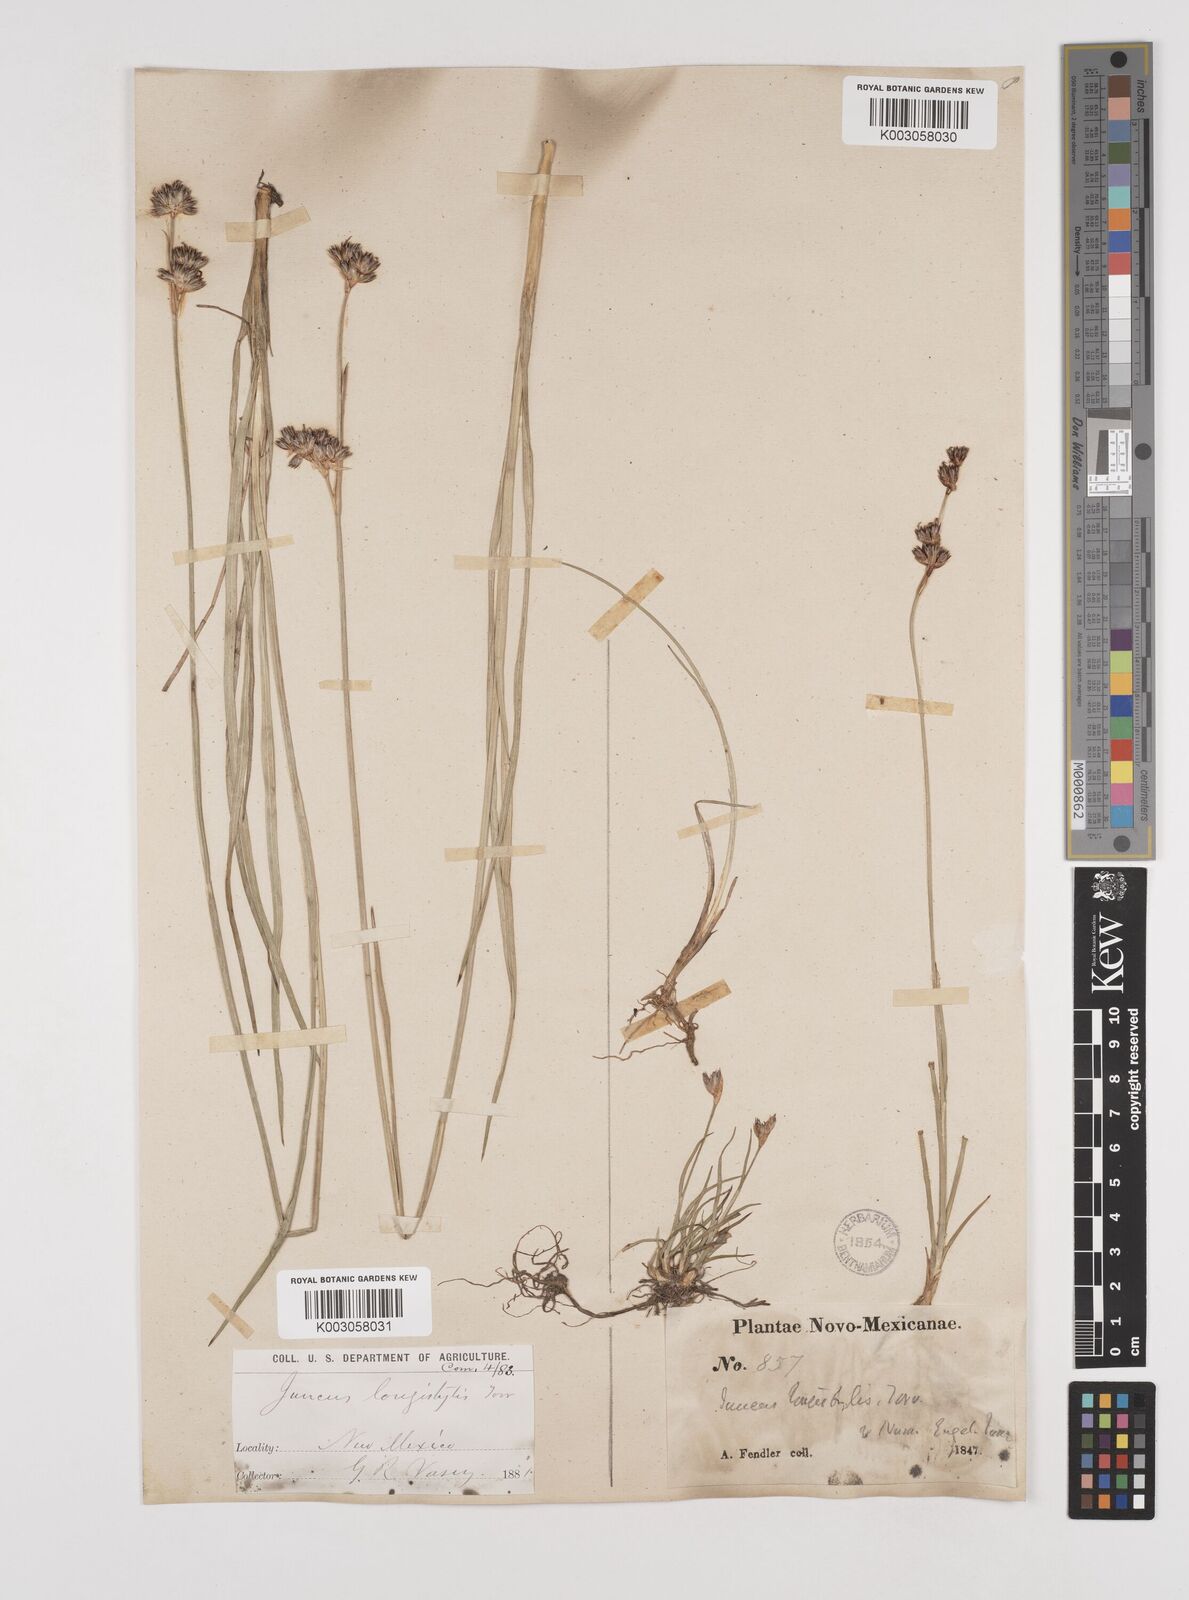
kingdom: Plantae
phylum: Tracheophyta
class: Liliopsida
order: Poales
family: Juncaceae
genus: Juncus
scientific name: Juncus longistylis
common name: Long-style rush
